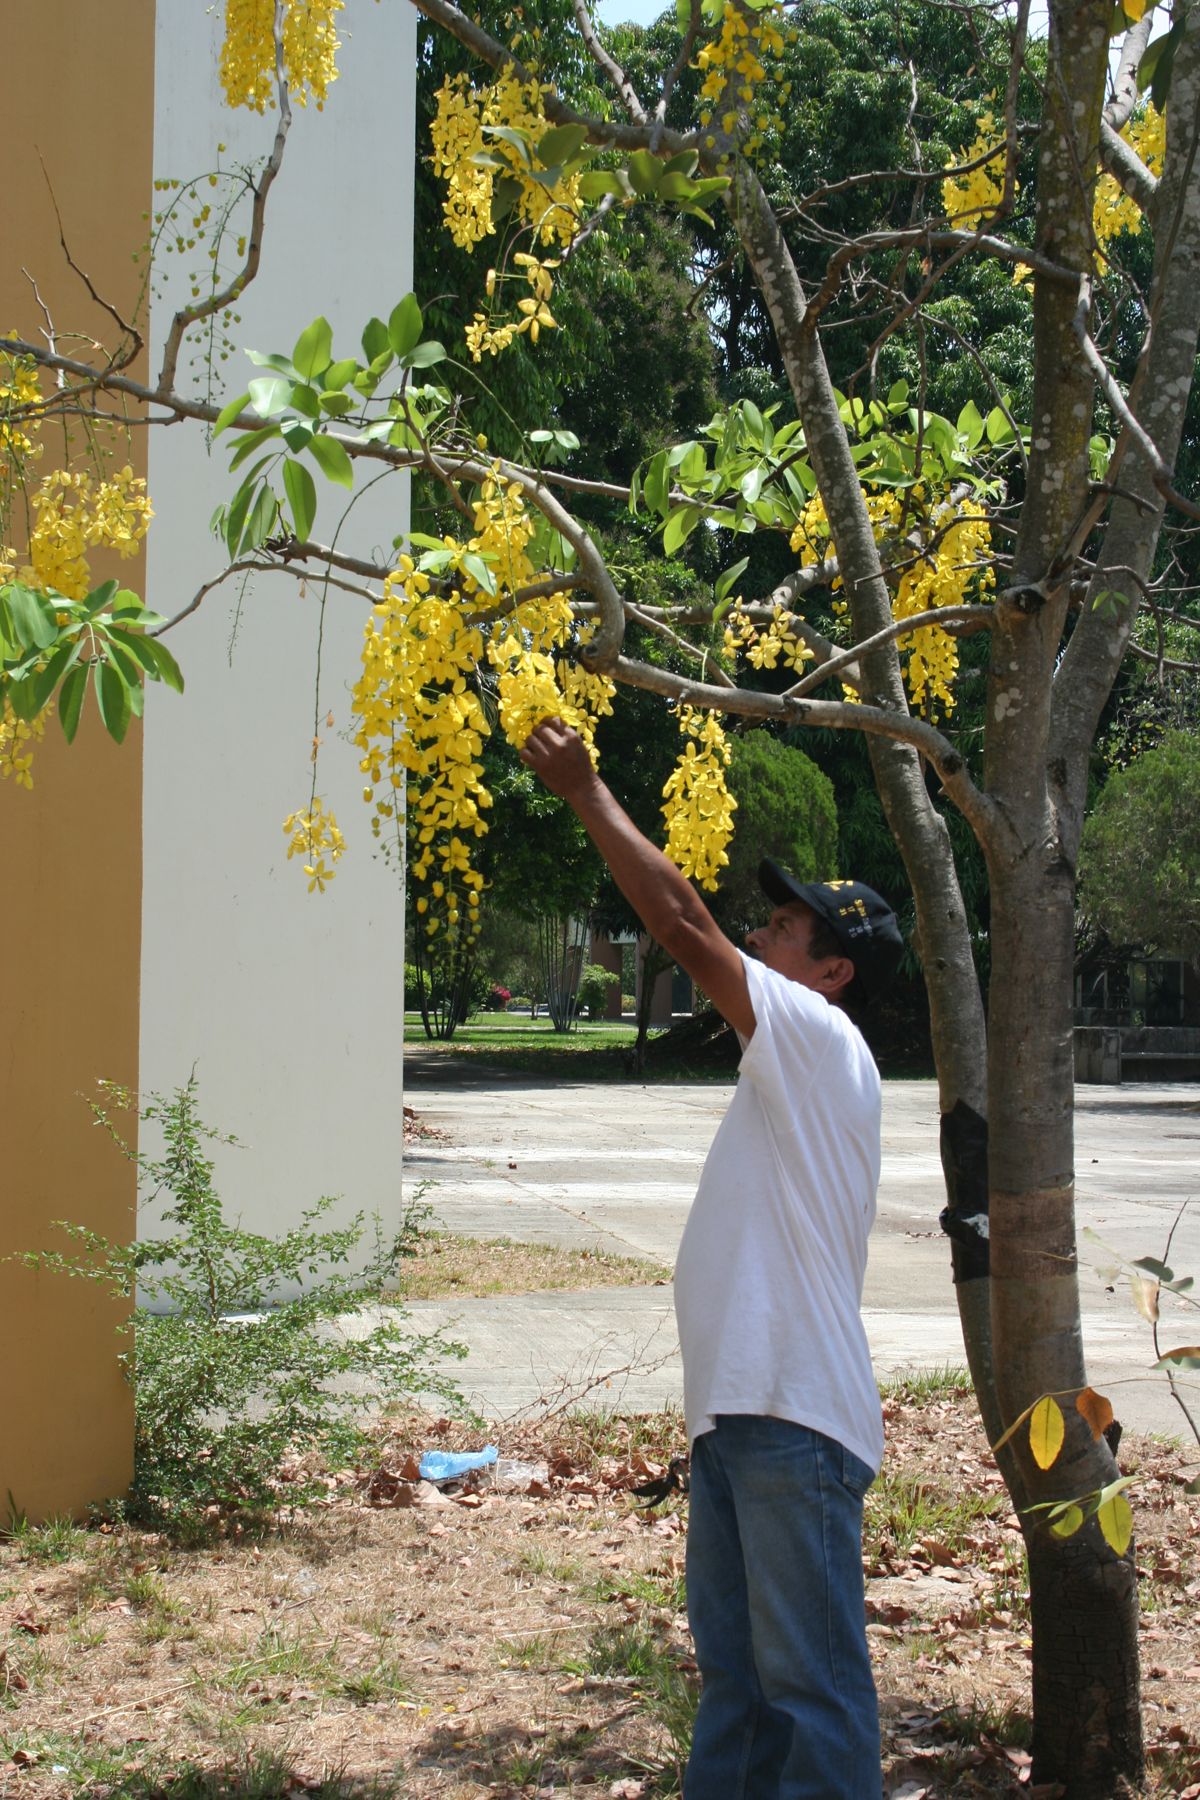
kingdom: Plantae
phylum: Tracheophyta
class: Magnoliopsida
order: Fabales
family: Fabaceae
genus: Cassia
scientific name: Cassia fistula
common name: Golden shower
